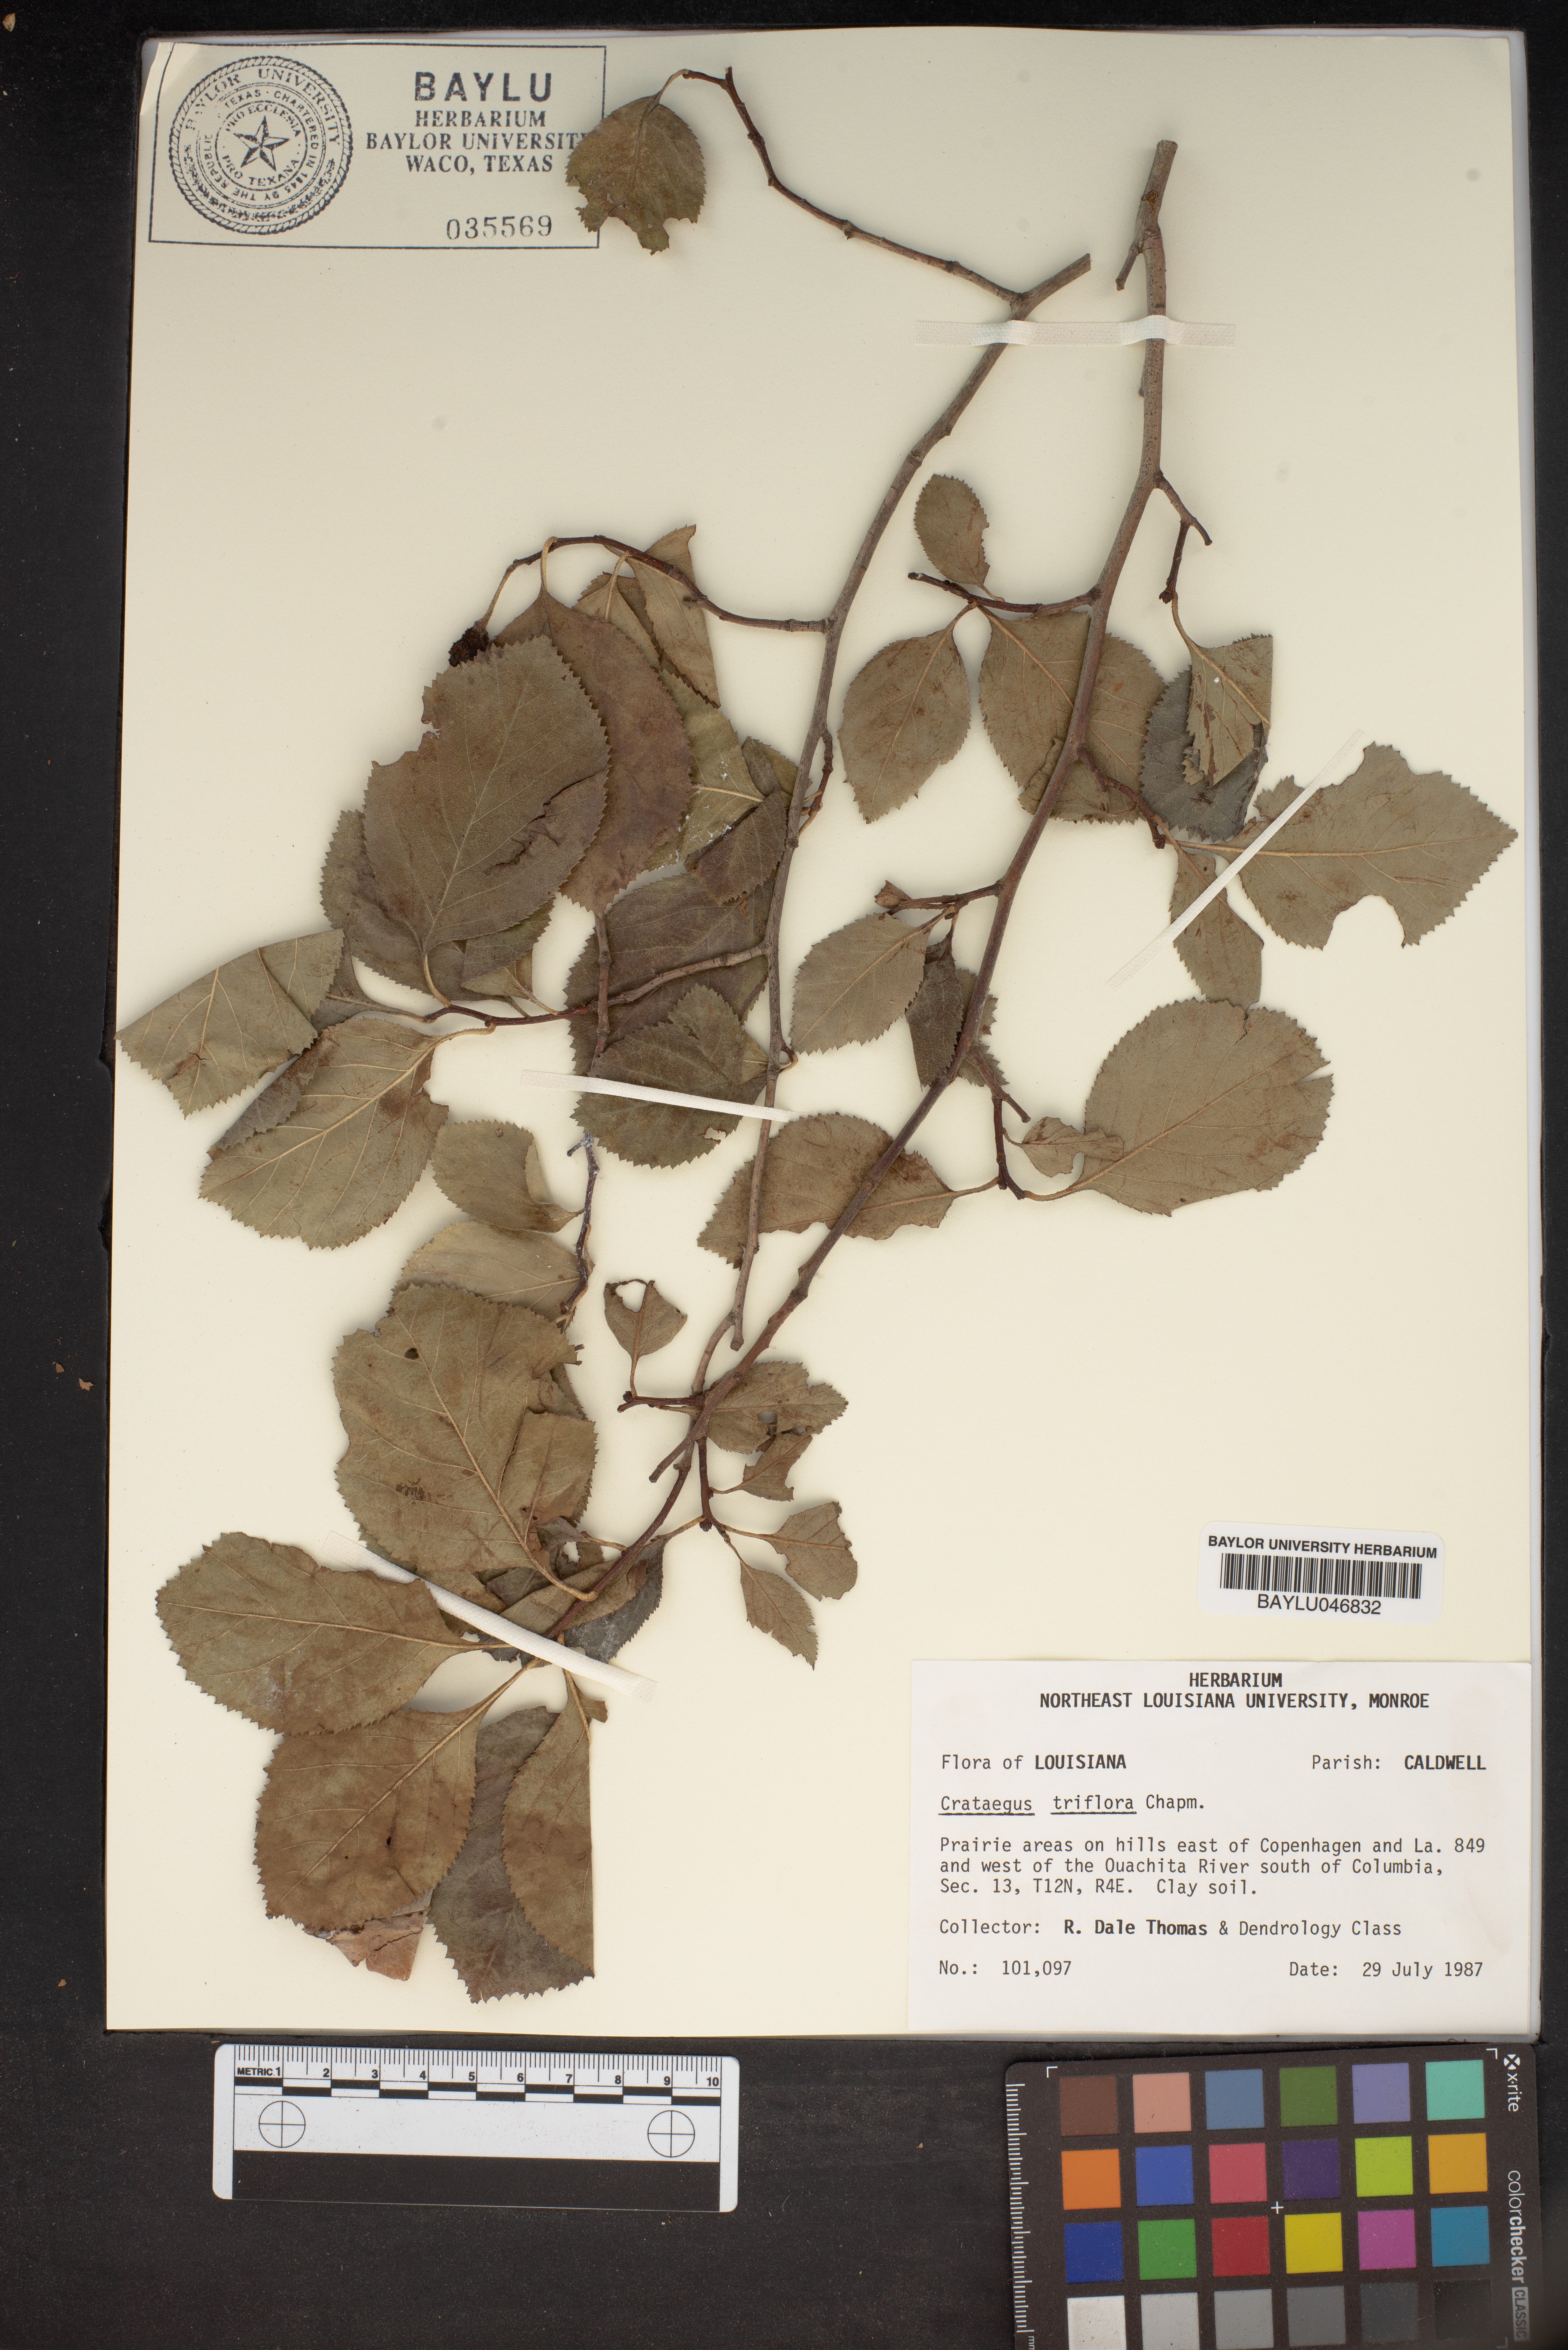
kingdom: Plantae
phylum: Tracheophyta
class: Magnoliopsida
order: Rosales
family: Rosaceae
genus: Crataegus
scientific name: Crataegus triflora
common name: Three-flower hawthorn
